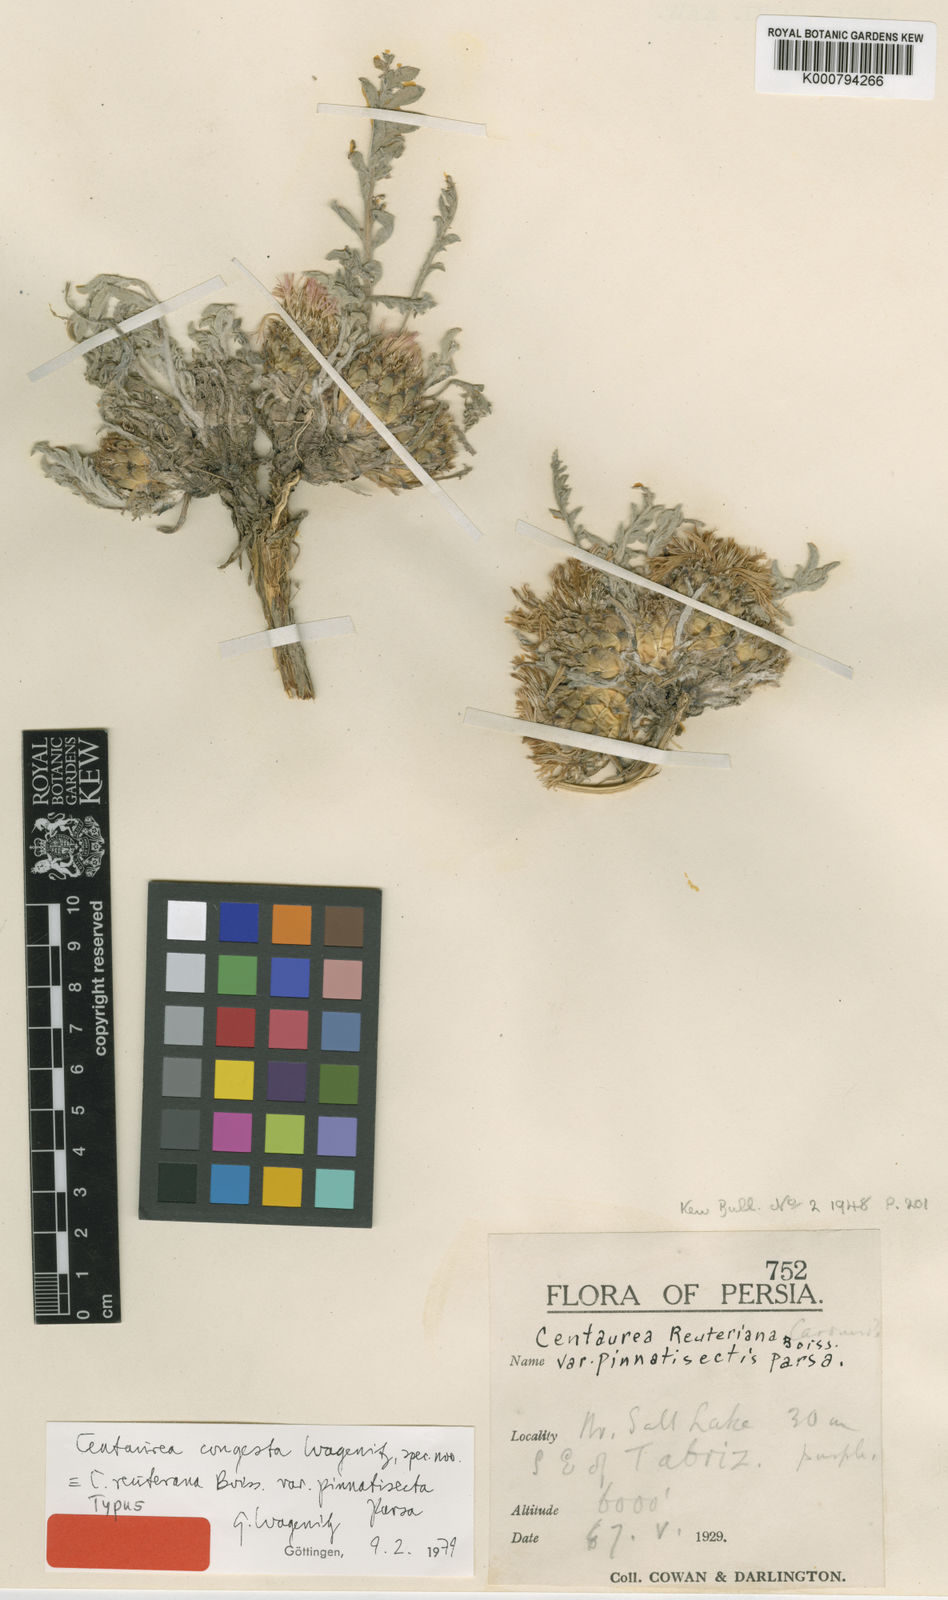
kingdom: Plantae
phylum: Tracheophyta
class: Magnoliopsida
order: Asterales
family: Asteraceae
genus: Psephellus
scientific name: Psephellus congestus
